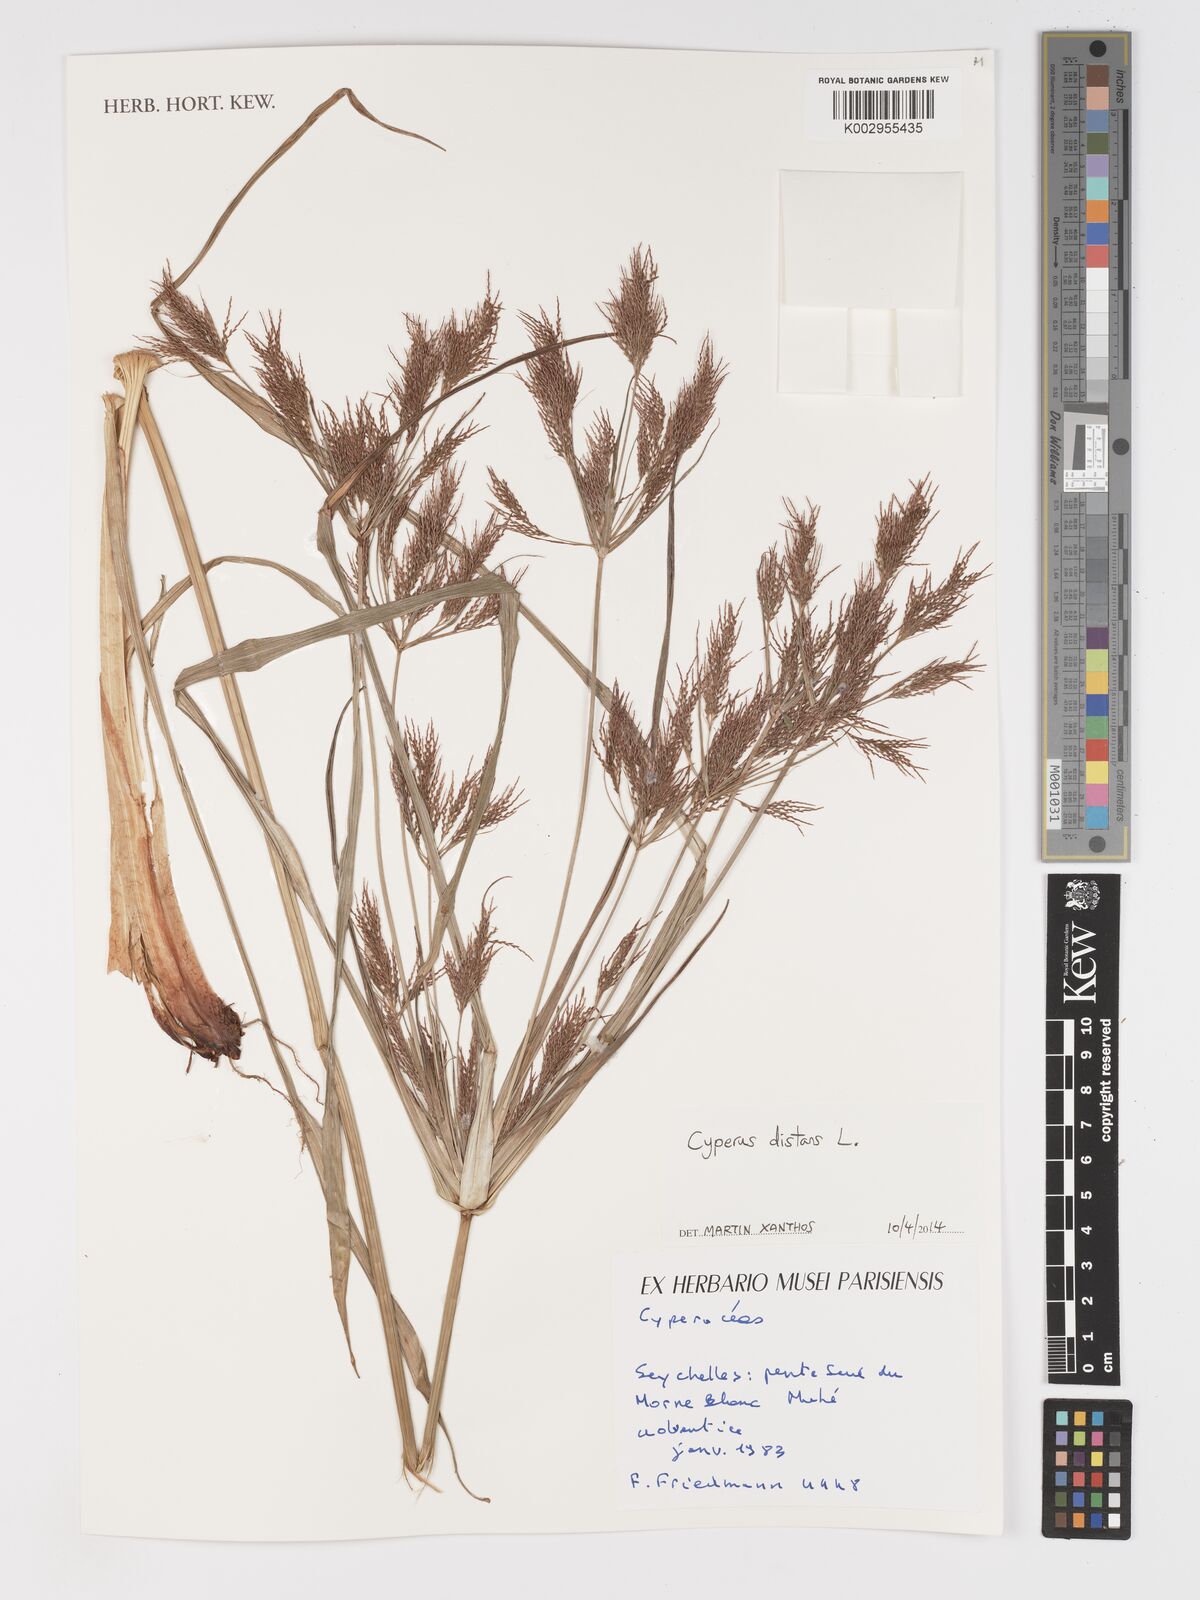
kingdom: Plantae
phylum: Tracheophyta
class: Liliopsida
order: Poales
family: Cyperaceae
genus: Cyperus
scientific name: Cyperus distans
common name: Slender cyperus
